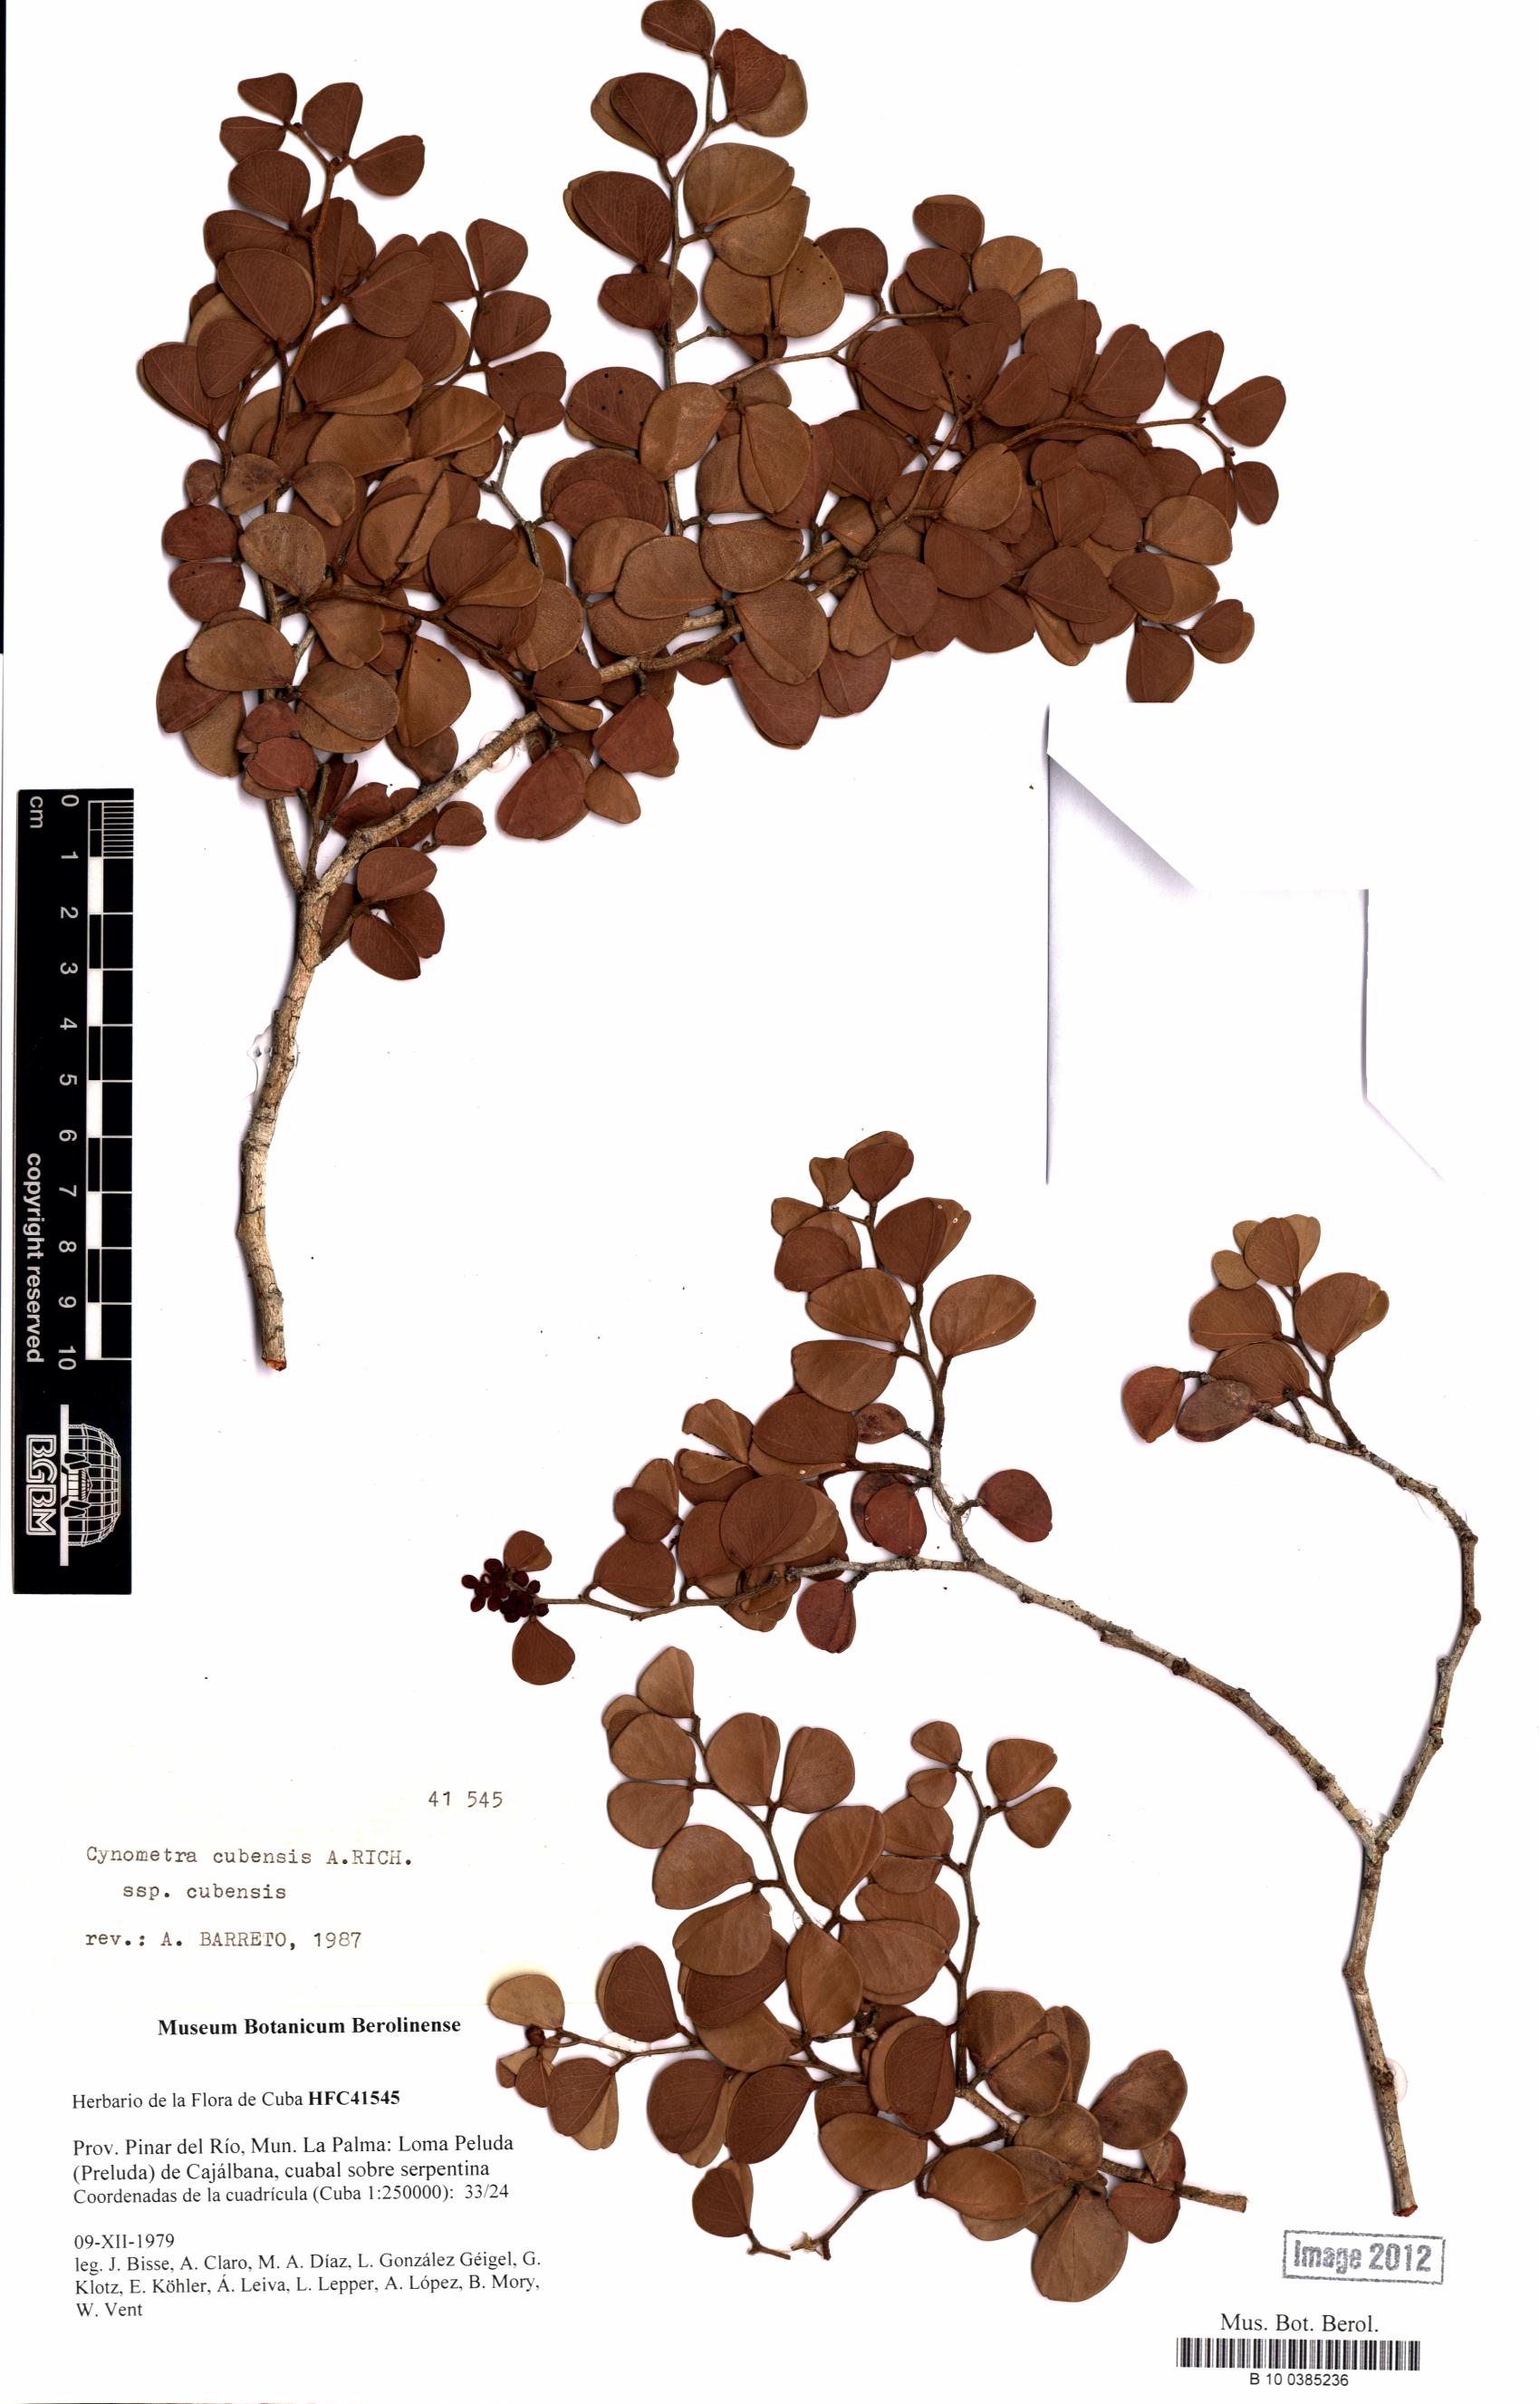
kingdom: Plantae
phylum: Tracheophyta
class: Magnoliopsida
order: Fabales
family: Fabaceae
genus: Cynometra
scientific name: Cynometra cubensis
